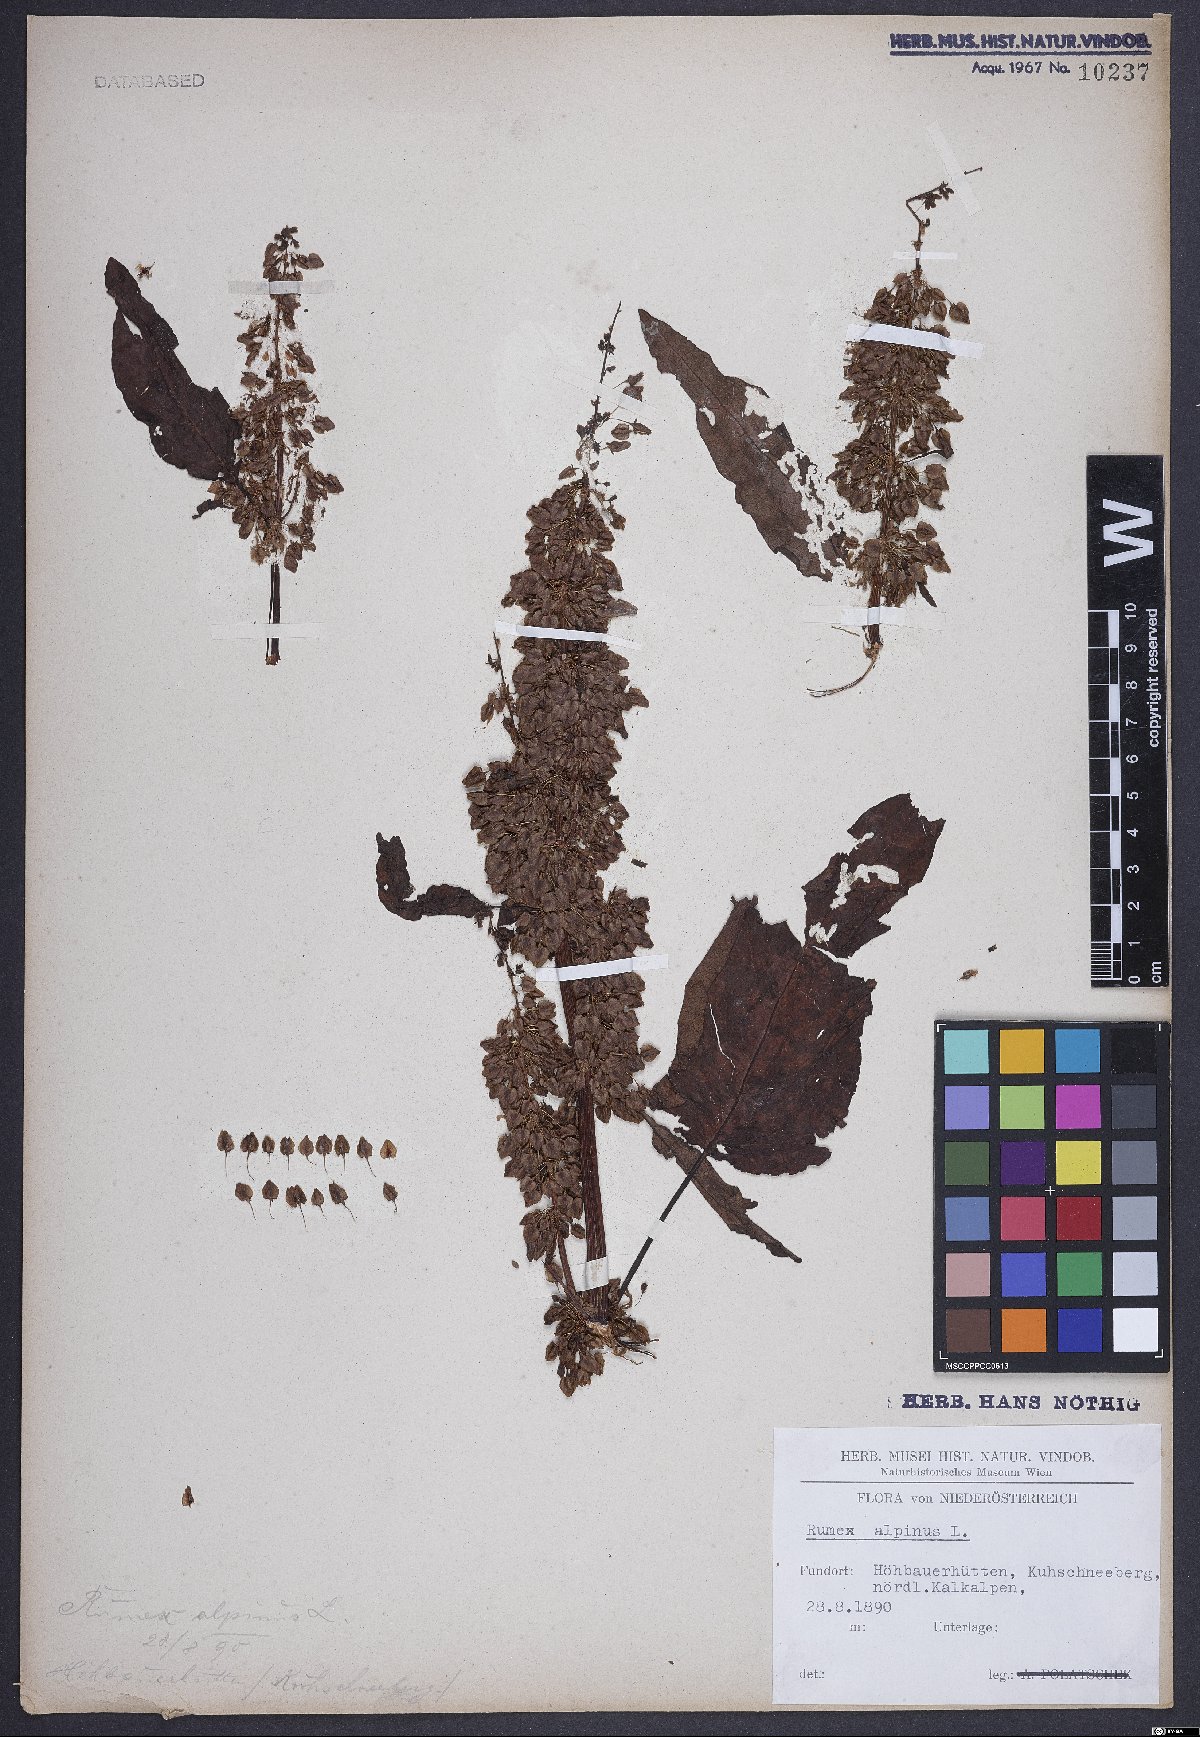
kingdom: Plantae
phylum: Tracheophyta
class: Magnoliopsida
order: Caryophyllales
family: Polygonaceae
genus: Rumex
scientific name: Rumex alpinus
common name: Alpine dock
